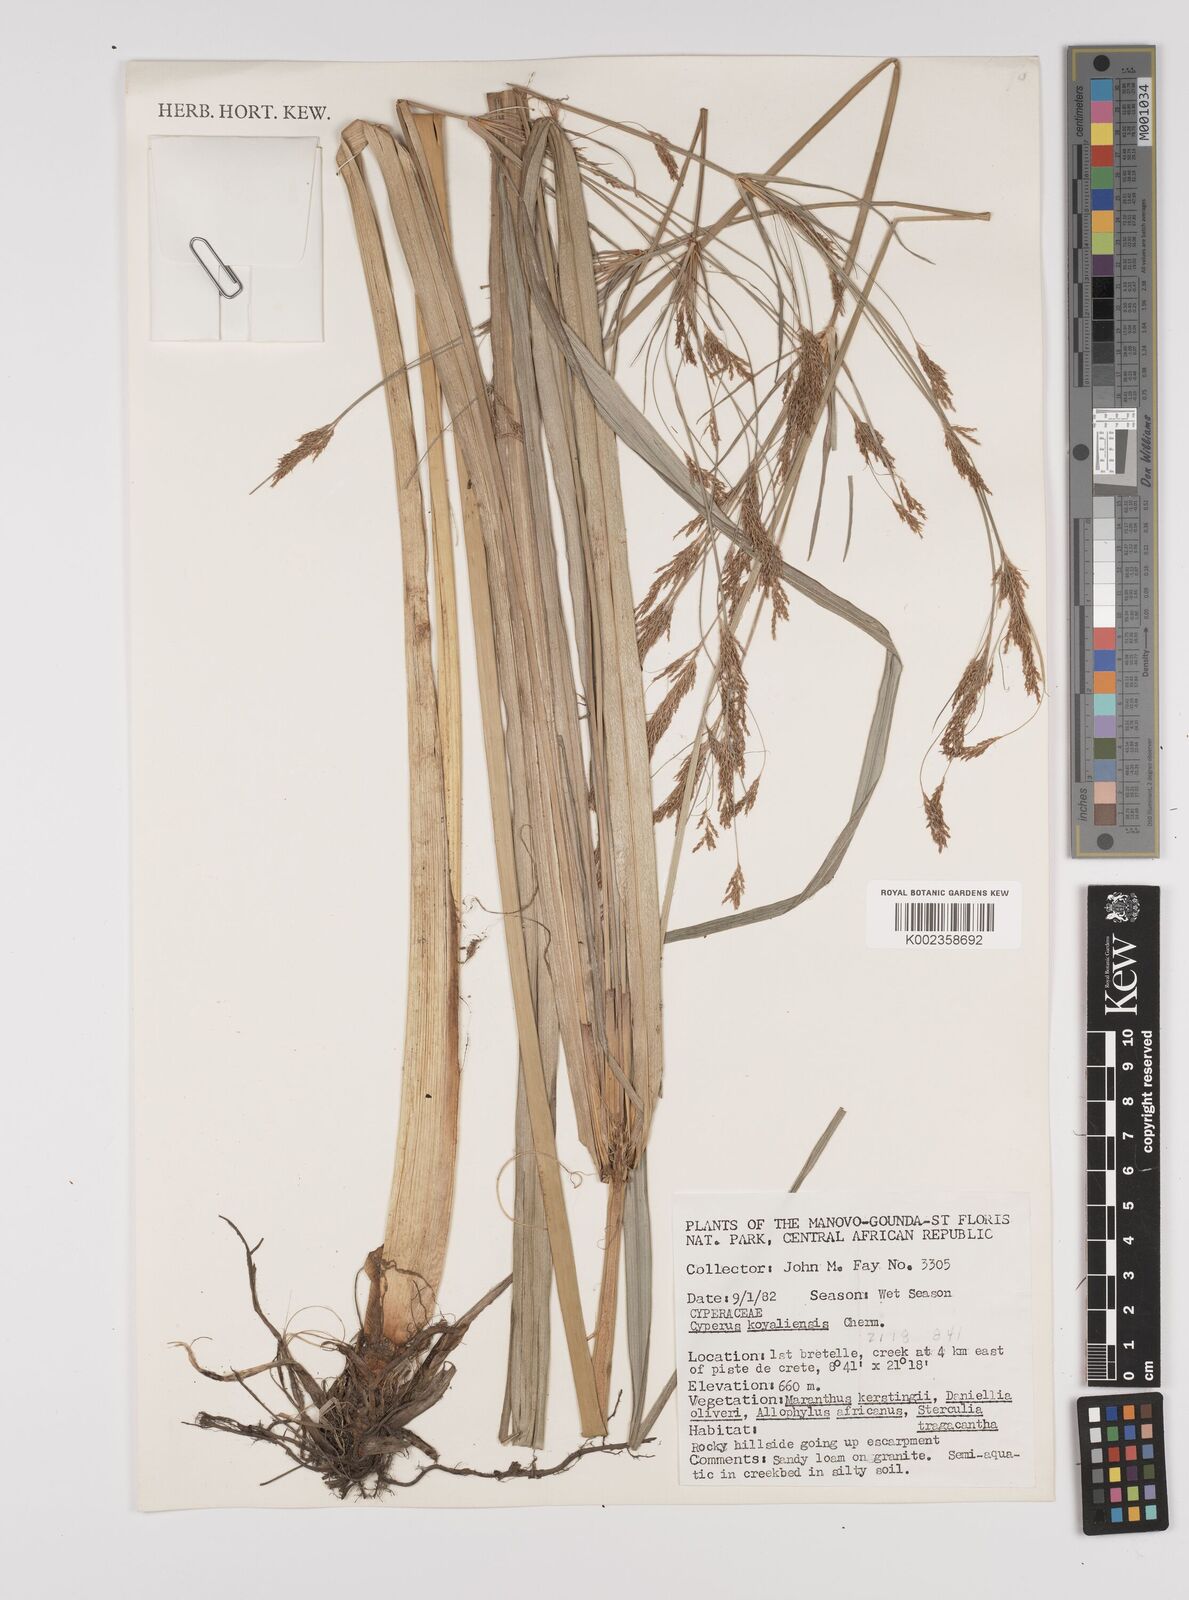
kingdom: Plantae
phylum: Tracheophyta
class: Liliopsida
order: Poales
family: Cyperaceae
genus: Cyperus
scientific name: Cyperus koyaliensis
